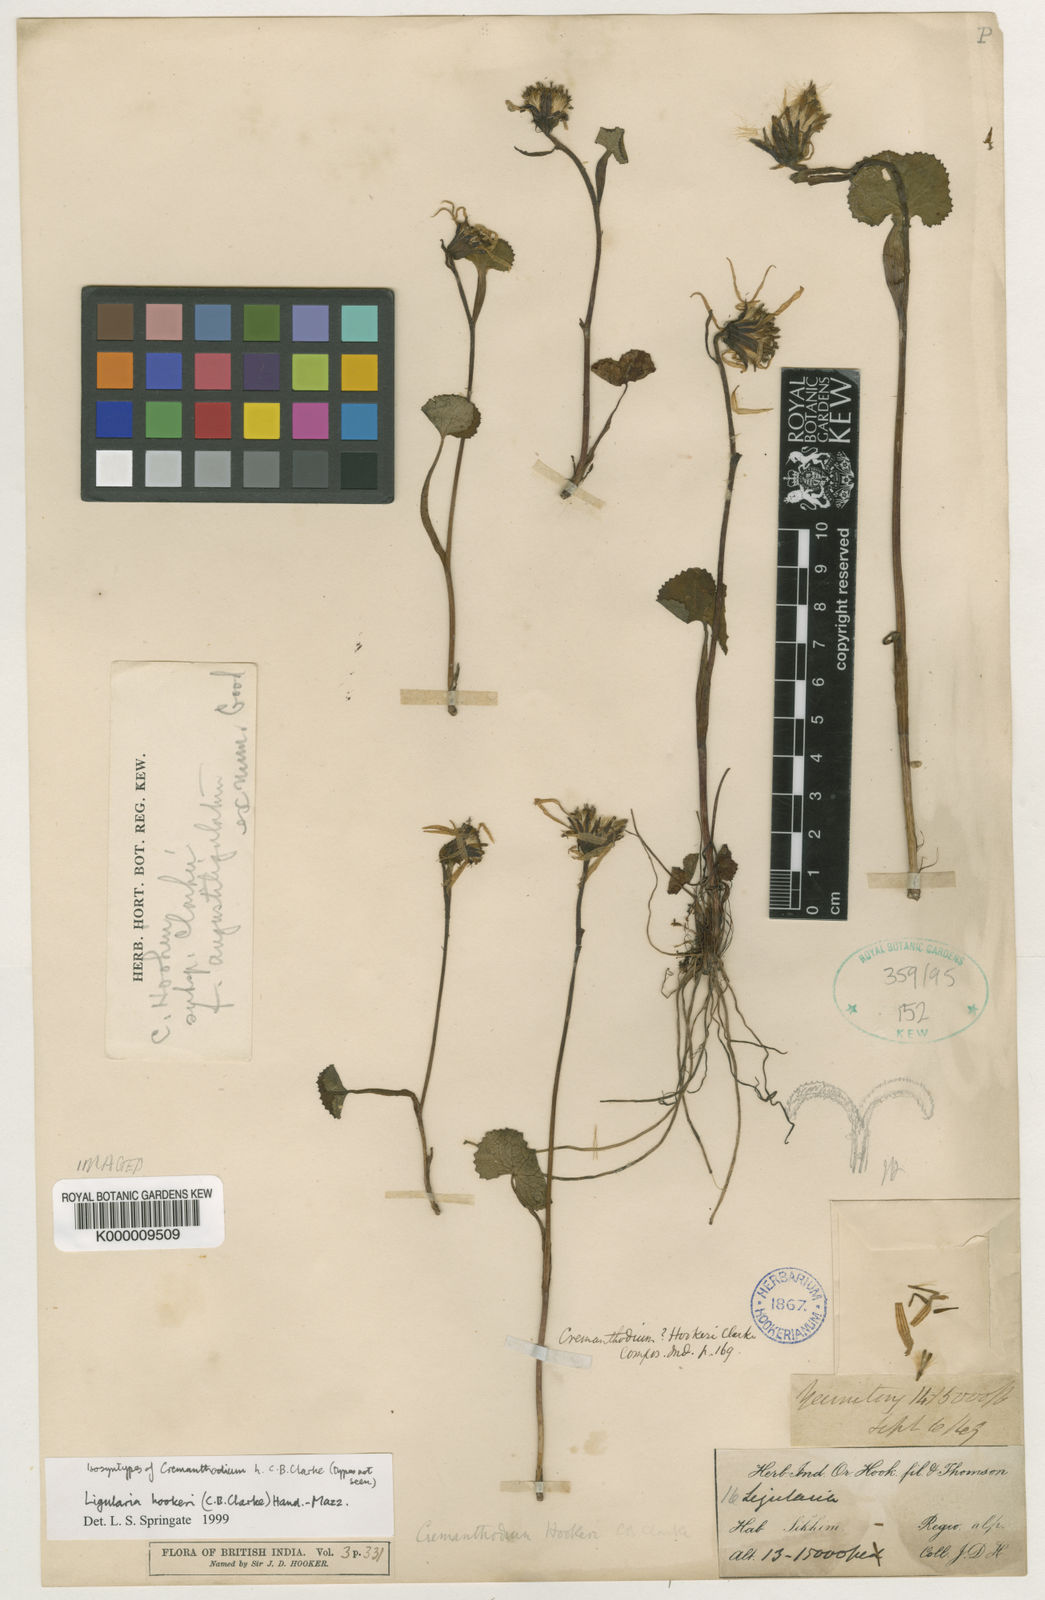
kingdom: Plantae
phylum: Tracheophyta
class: Magnoliopsida
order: Asterales
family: Asteraceae
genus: Ligularia
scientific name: Ligularia hookeri
